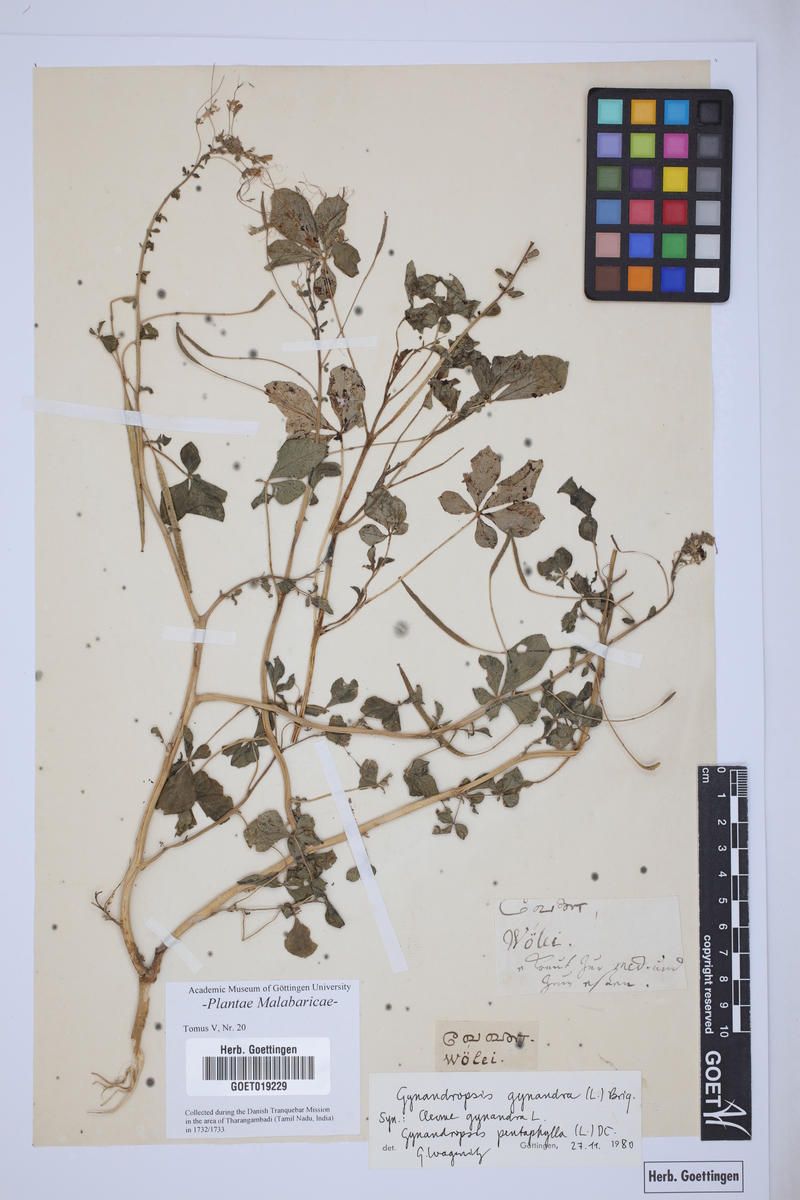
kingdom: Plantae
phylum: Tracheophyta
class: Magnoliopsida
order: Brassicales
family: Cleomaceae
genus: Gynandropsis
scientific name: Gynandropsis gynandra
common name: Spiderwisp
